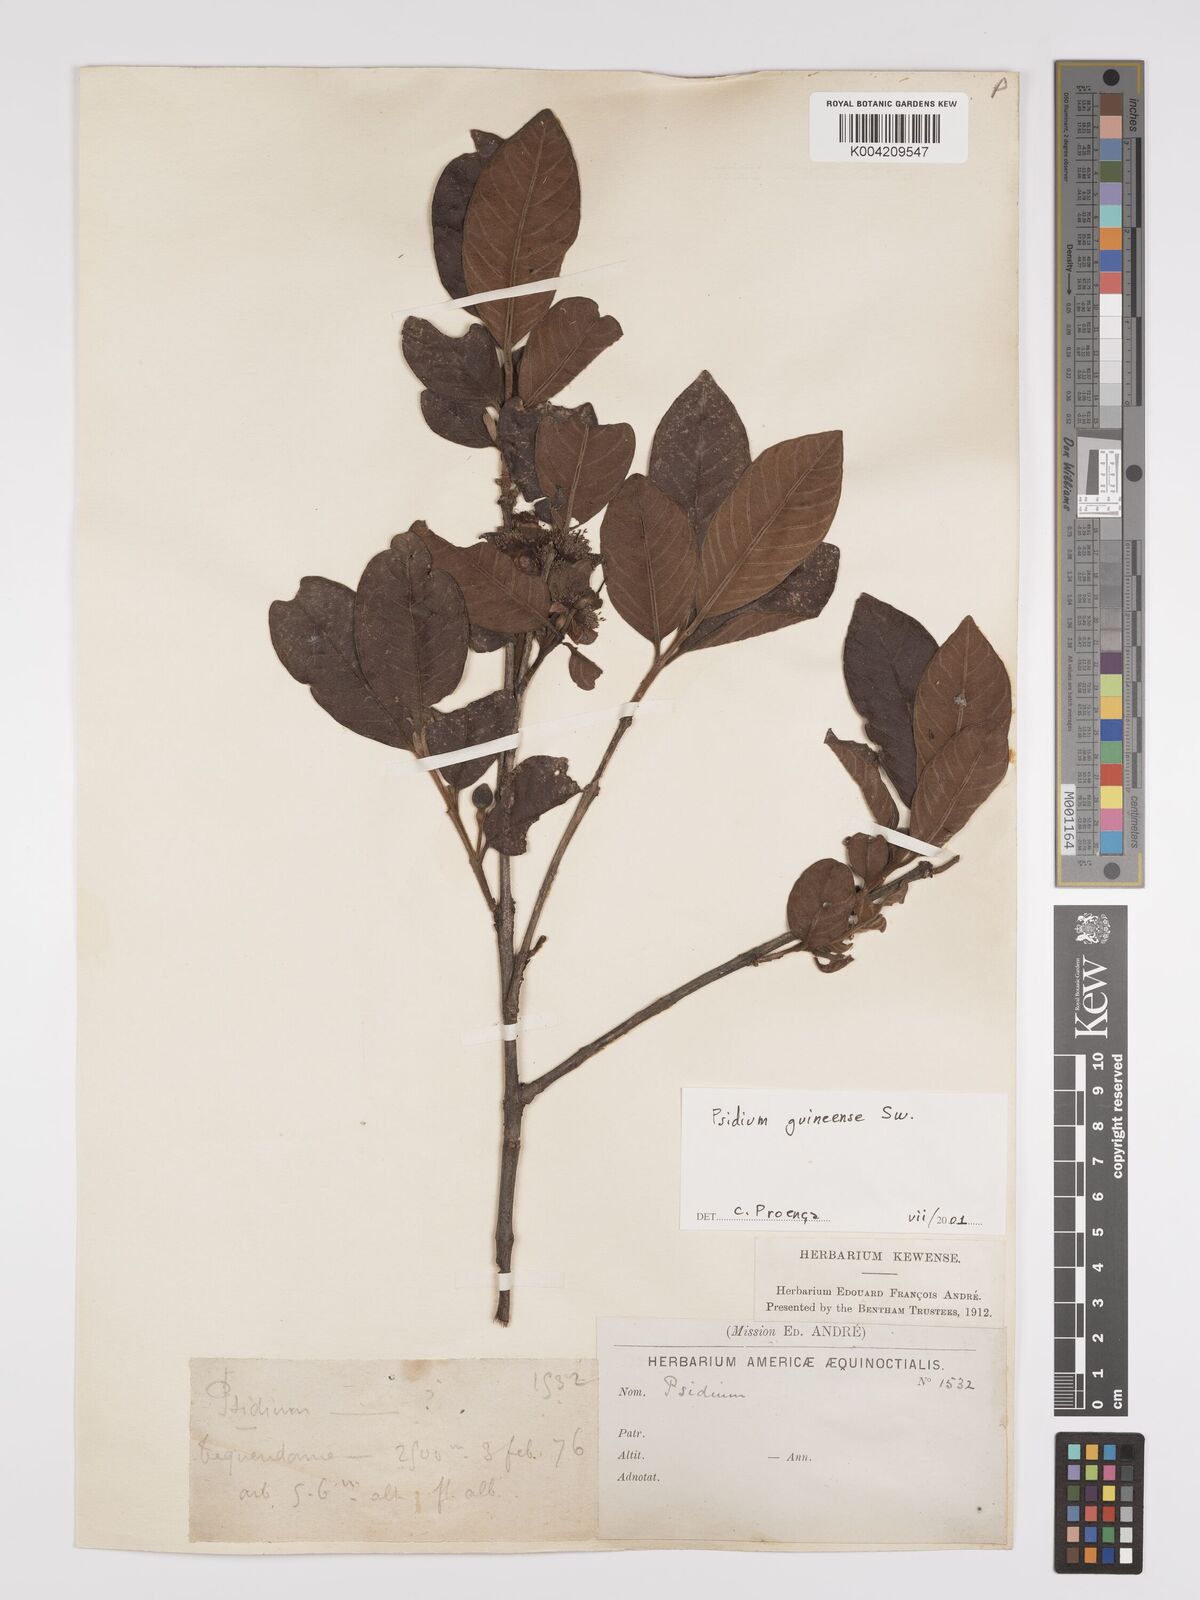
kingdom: Plantae
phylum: Tracheophyta
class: Magnoliopsida
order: Myrtales
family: Myrtaceae
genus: Psidium
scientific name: Psidium guineense
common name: Brazilian guava
